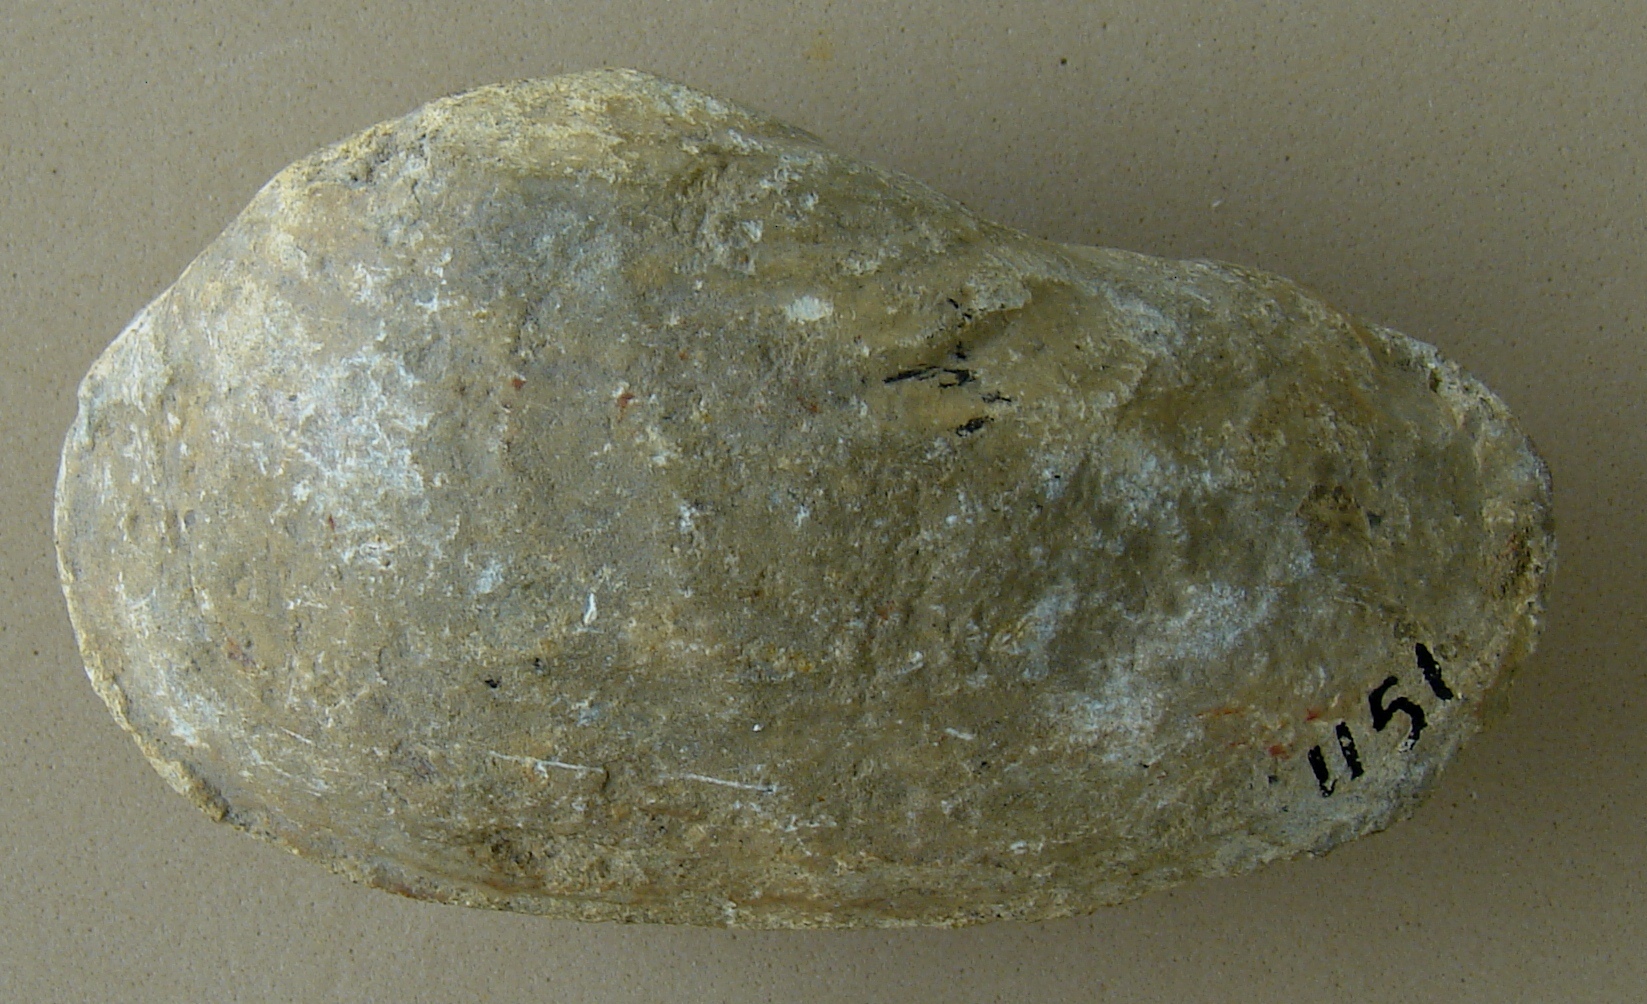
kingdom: Animalia
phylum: Mollusca
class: Bivalvia
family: Pholadomyidae
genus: Pholadomya
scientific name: Pholadomya
